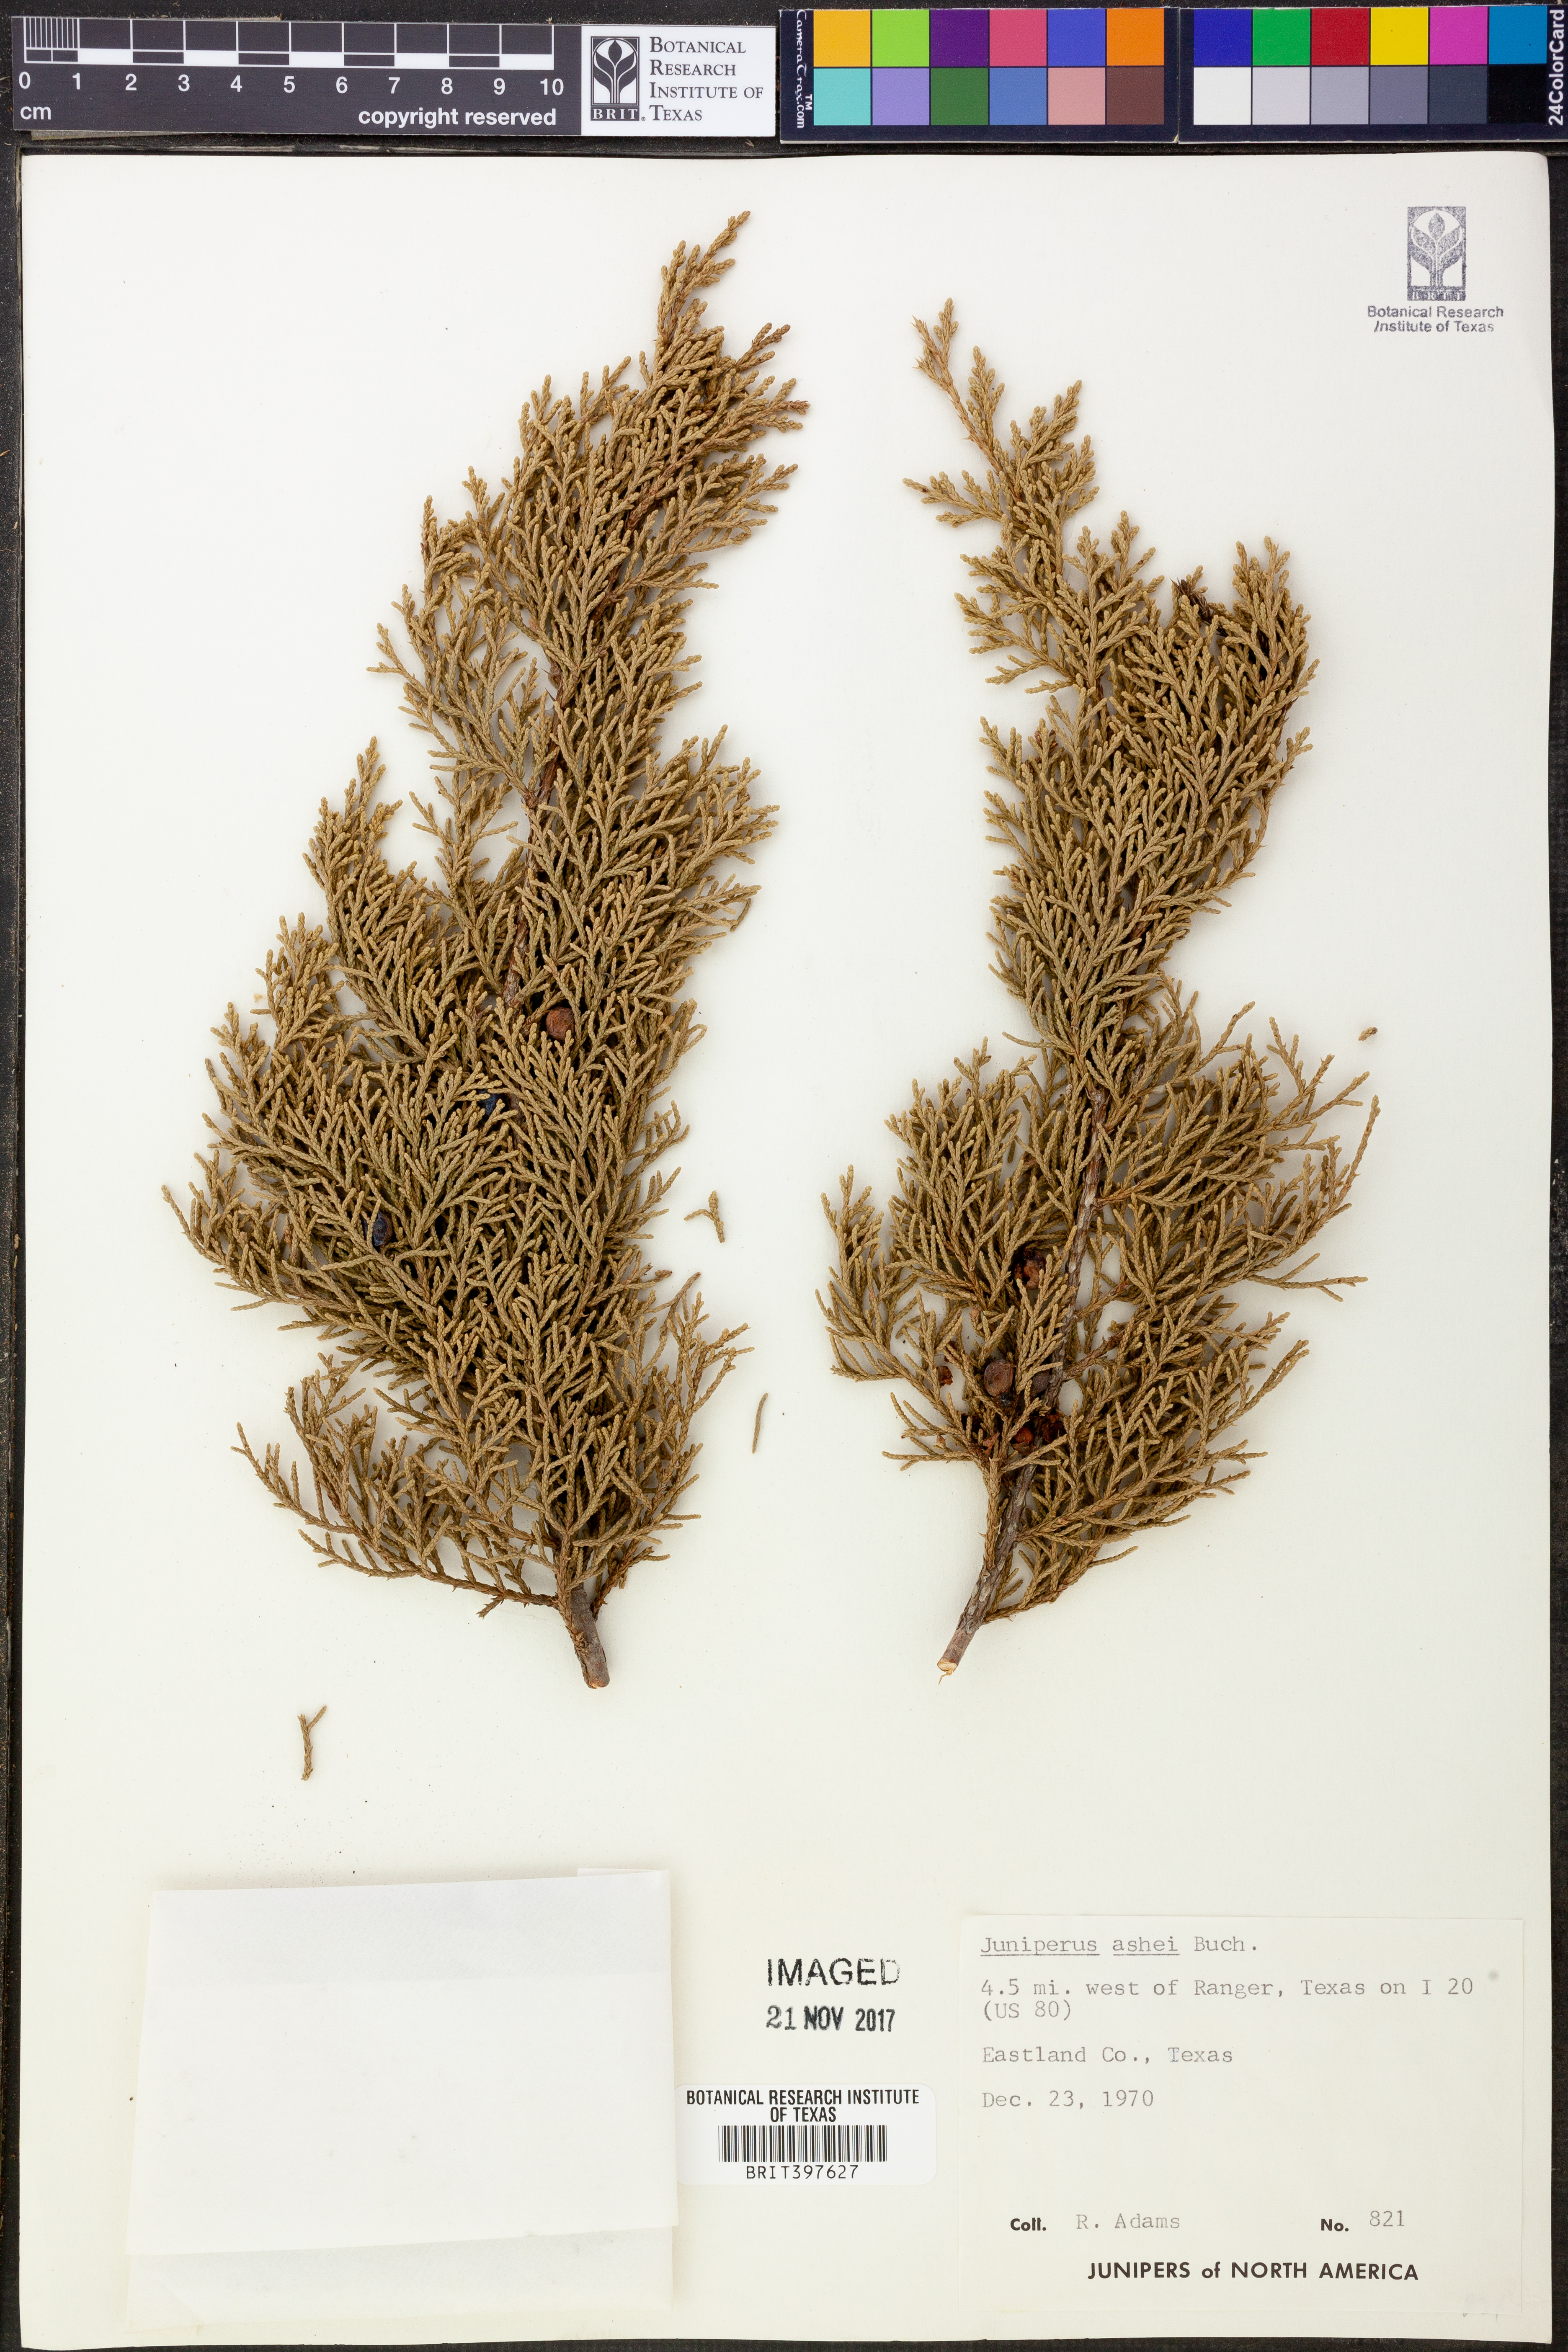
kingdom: Plantae
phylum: Tracheophyta
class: Pinopsida
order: Pinales
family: Cupressaceae
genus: Juniperus
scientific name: Juniperus ashei
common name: Mexican juniper
